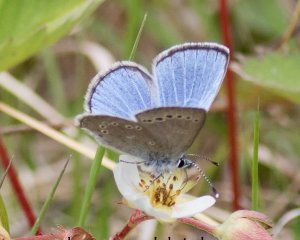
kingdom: Animalia
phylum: Arthropoda
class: Insecta
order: Lepidoptera
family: Lycaenidae
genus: Glaucopsyche
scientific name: Glaucopsyche lygdamus
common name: Silvery Blue
